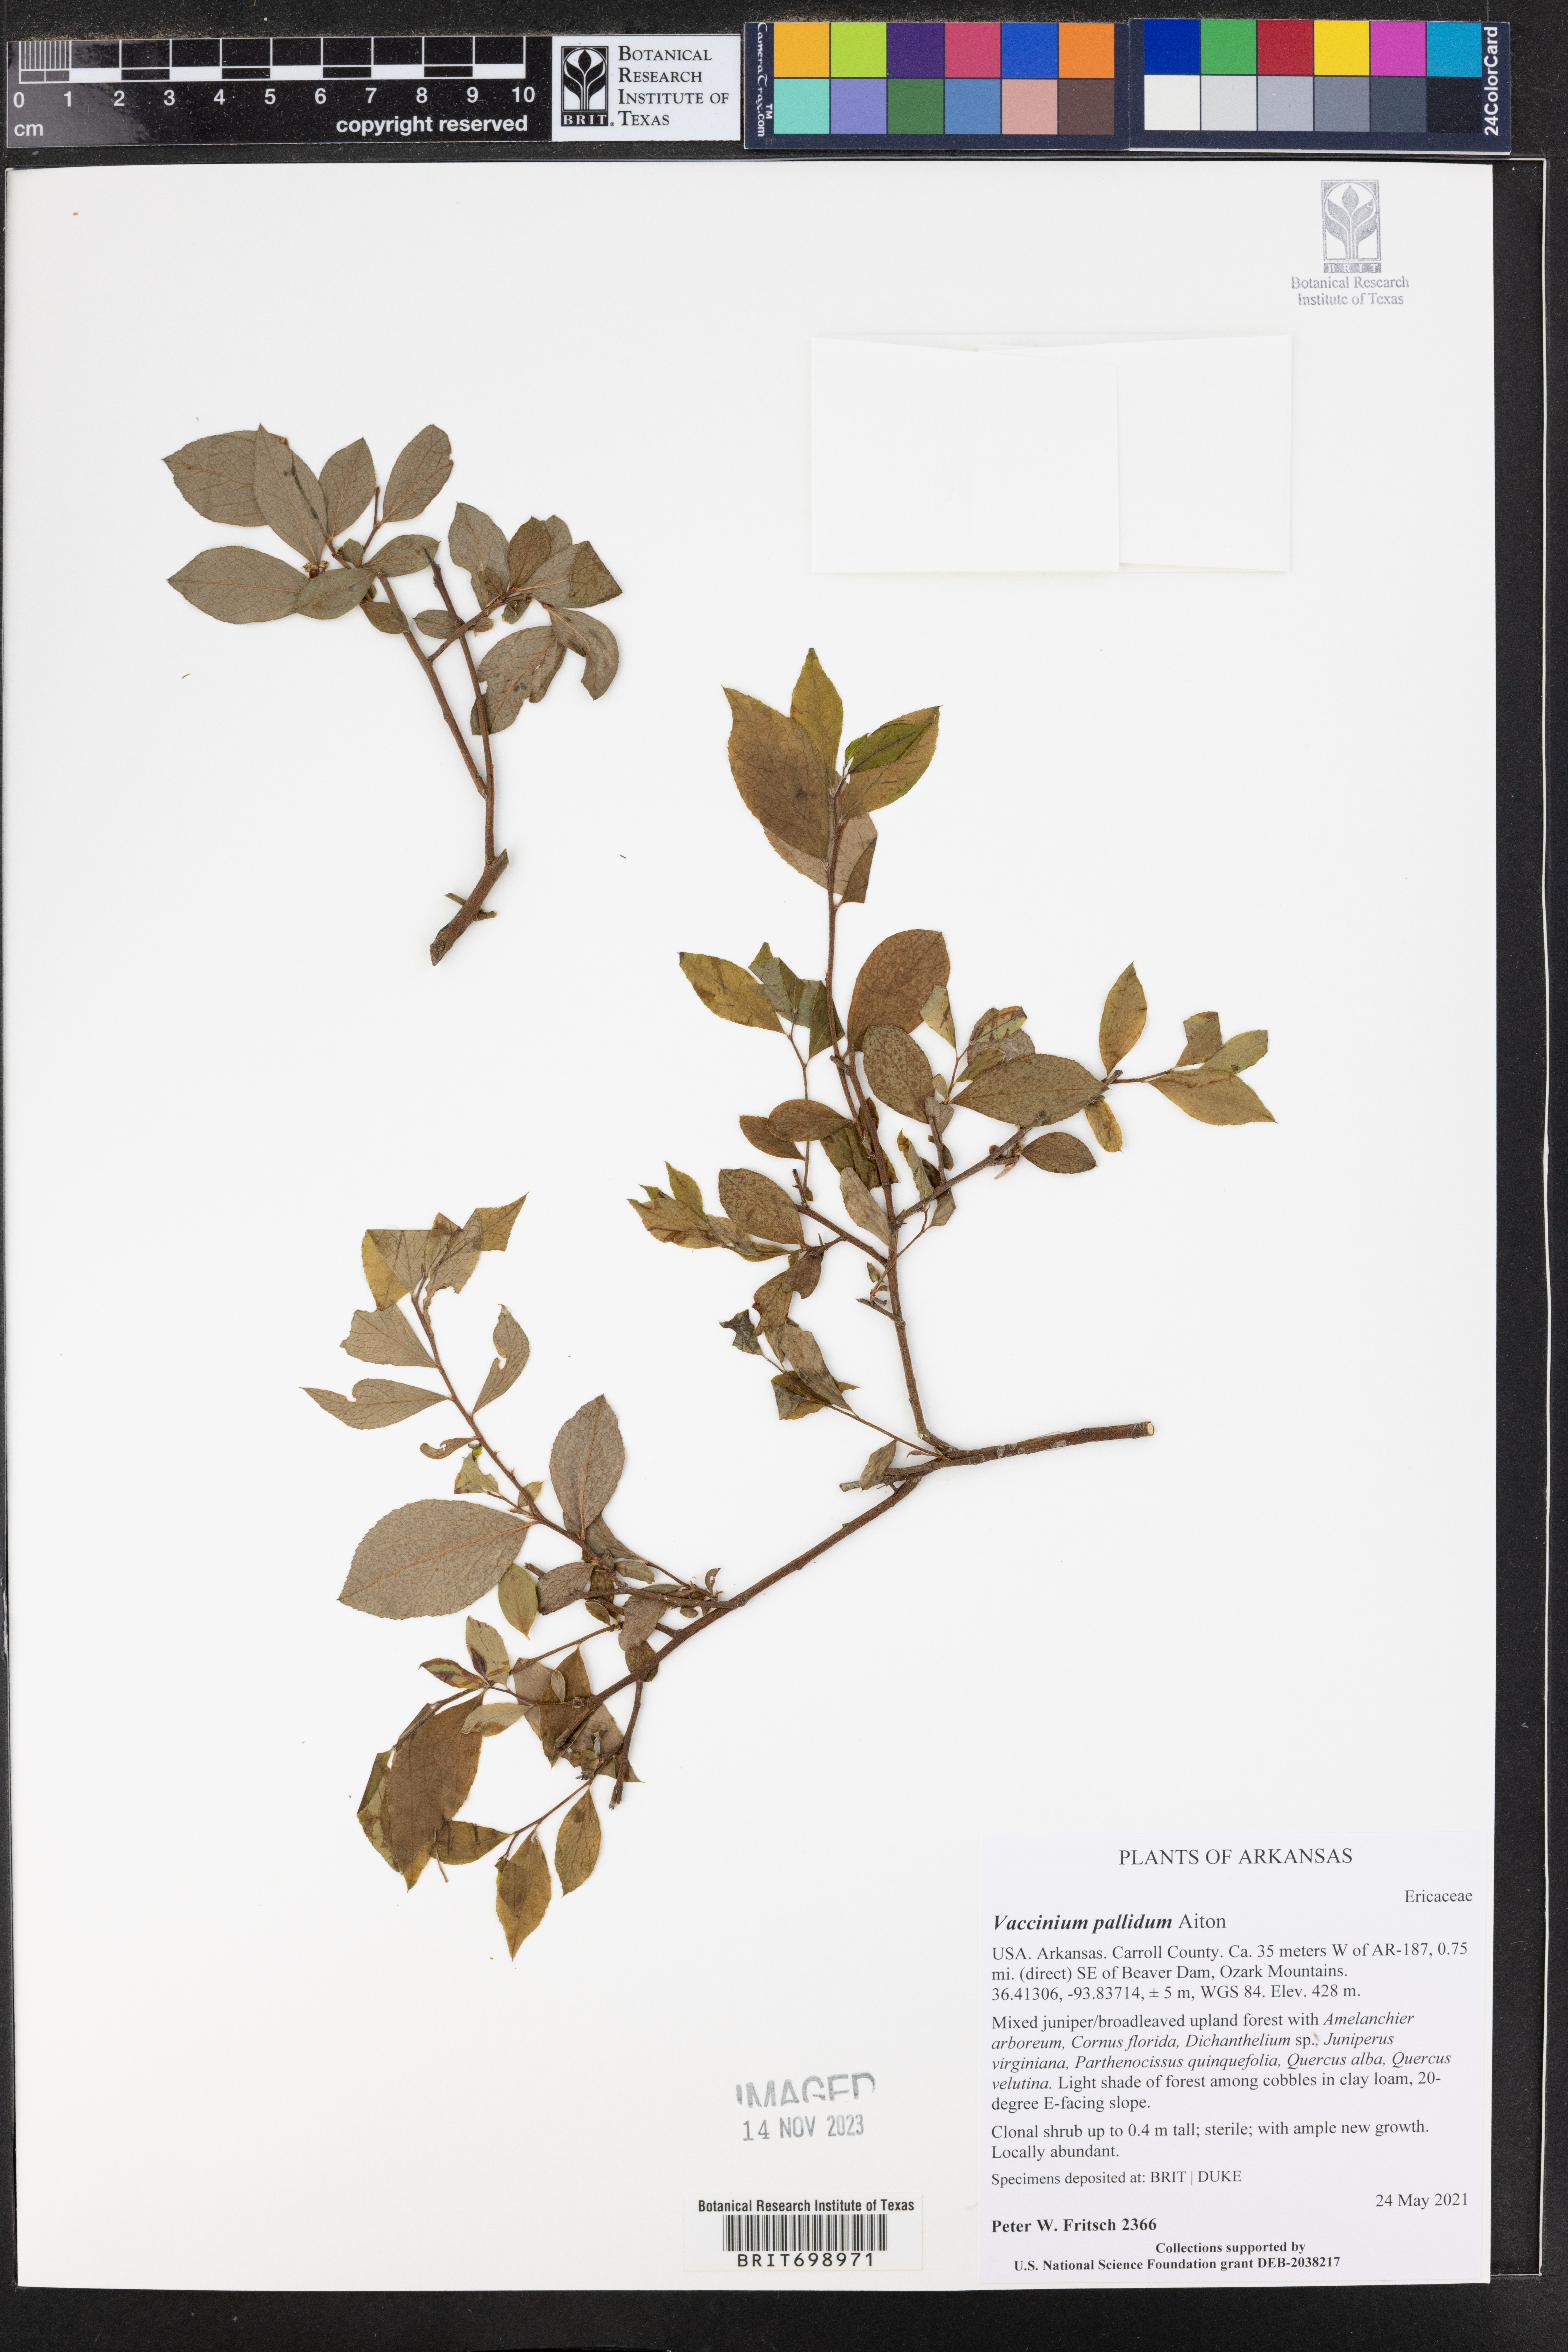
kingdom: Plantae
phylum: Tracheophyta
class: Magnoliopsida
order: Ericales
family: Ericaceae
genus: Vaccinium
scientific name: Vaccinium pallidum
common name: Blue ridge blueberry
